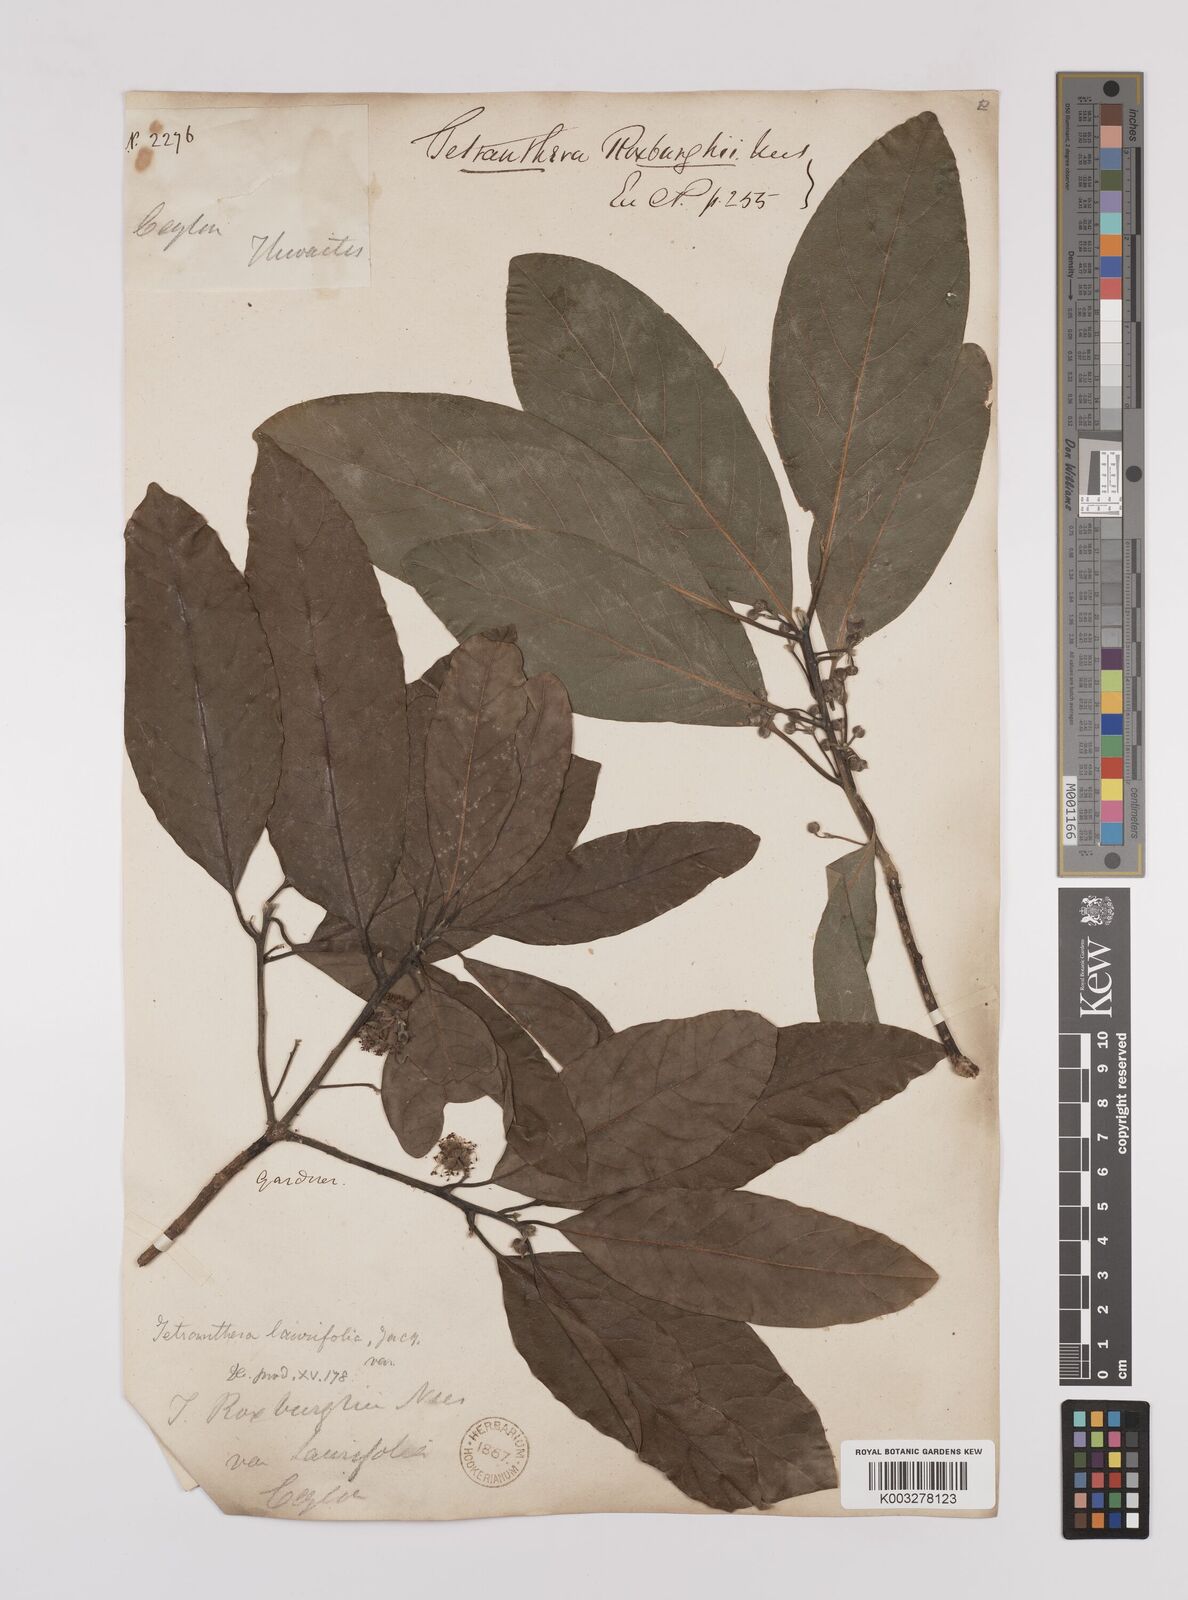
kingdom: Plantae
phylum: Tracheophyta
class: Magnoliopsida
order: Laurales
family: Lauraceae
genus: Litsea
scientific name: Litsea
